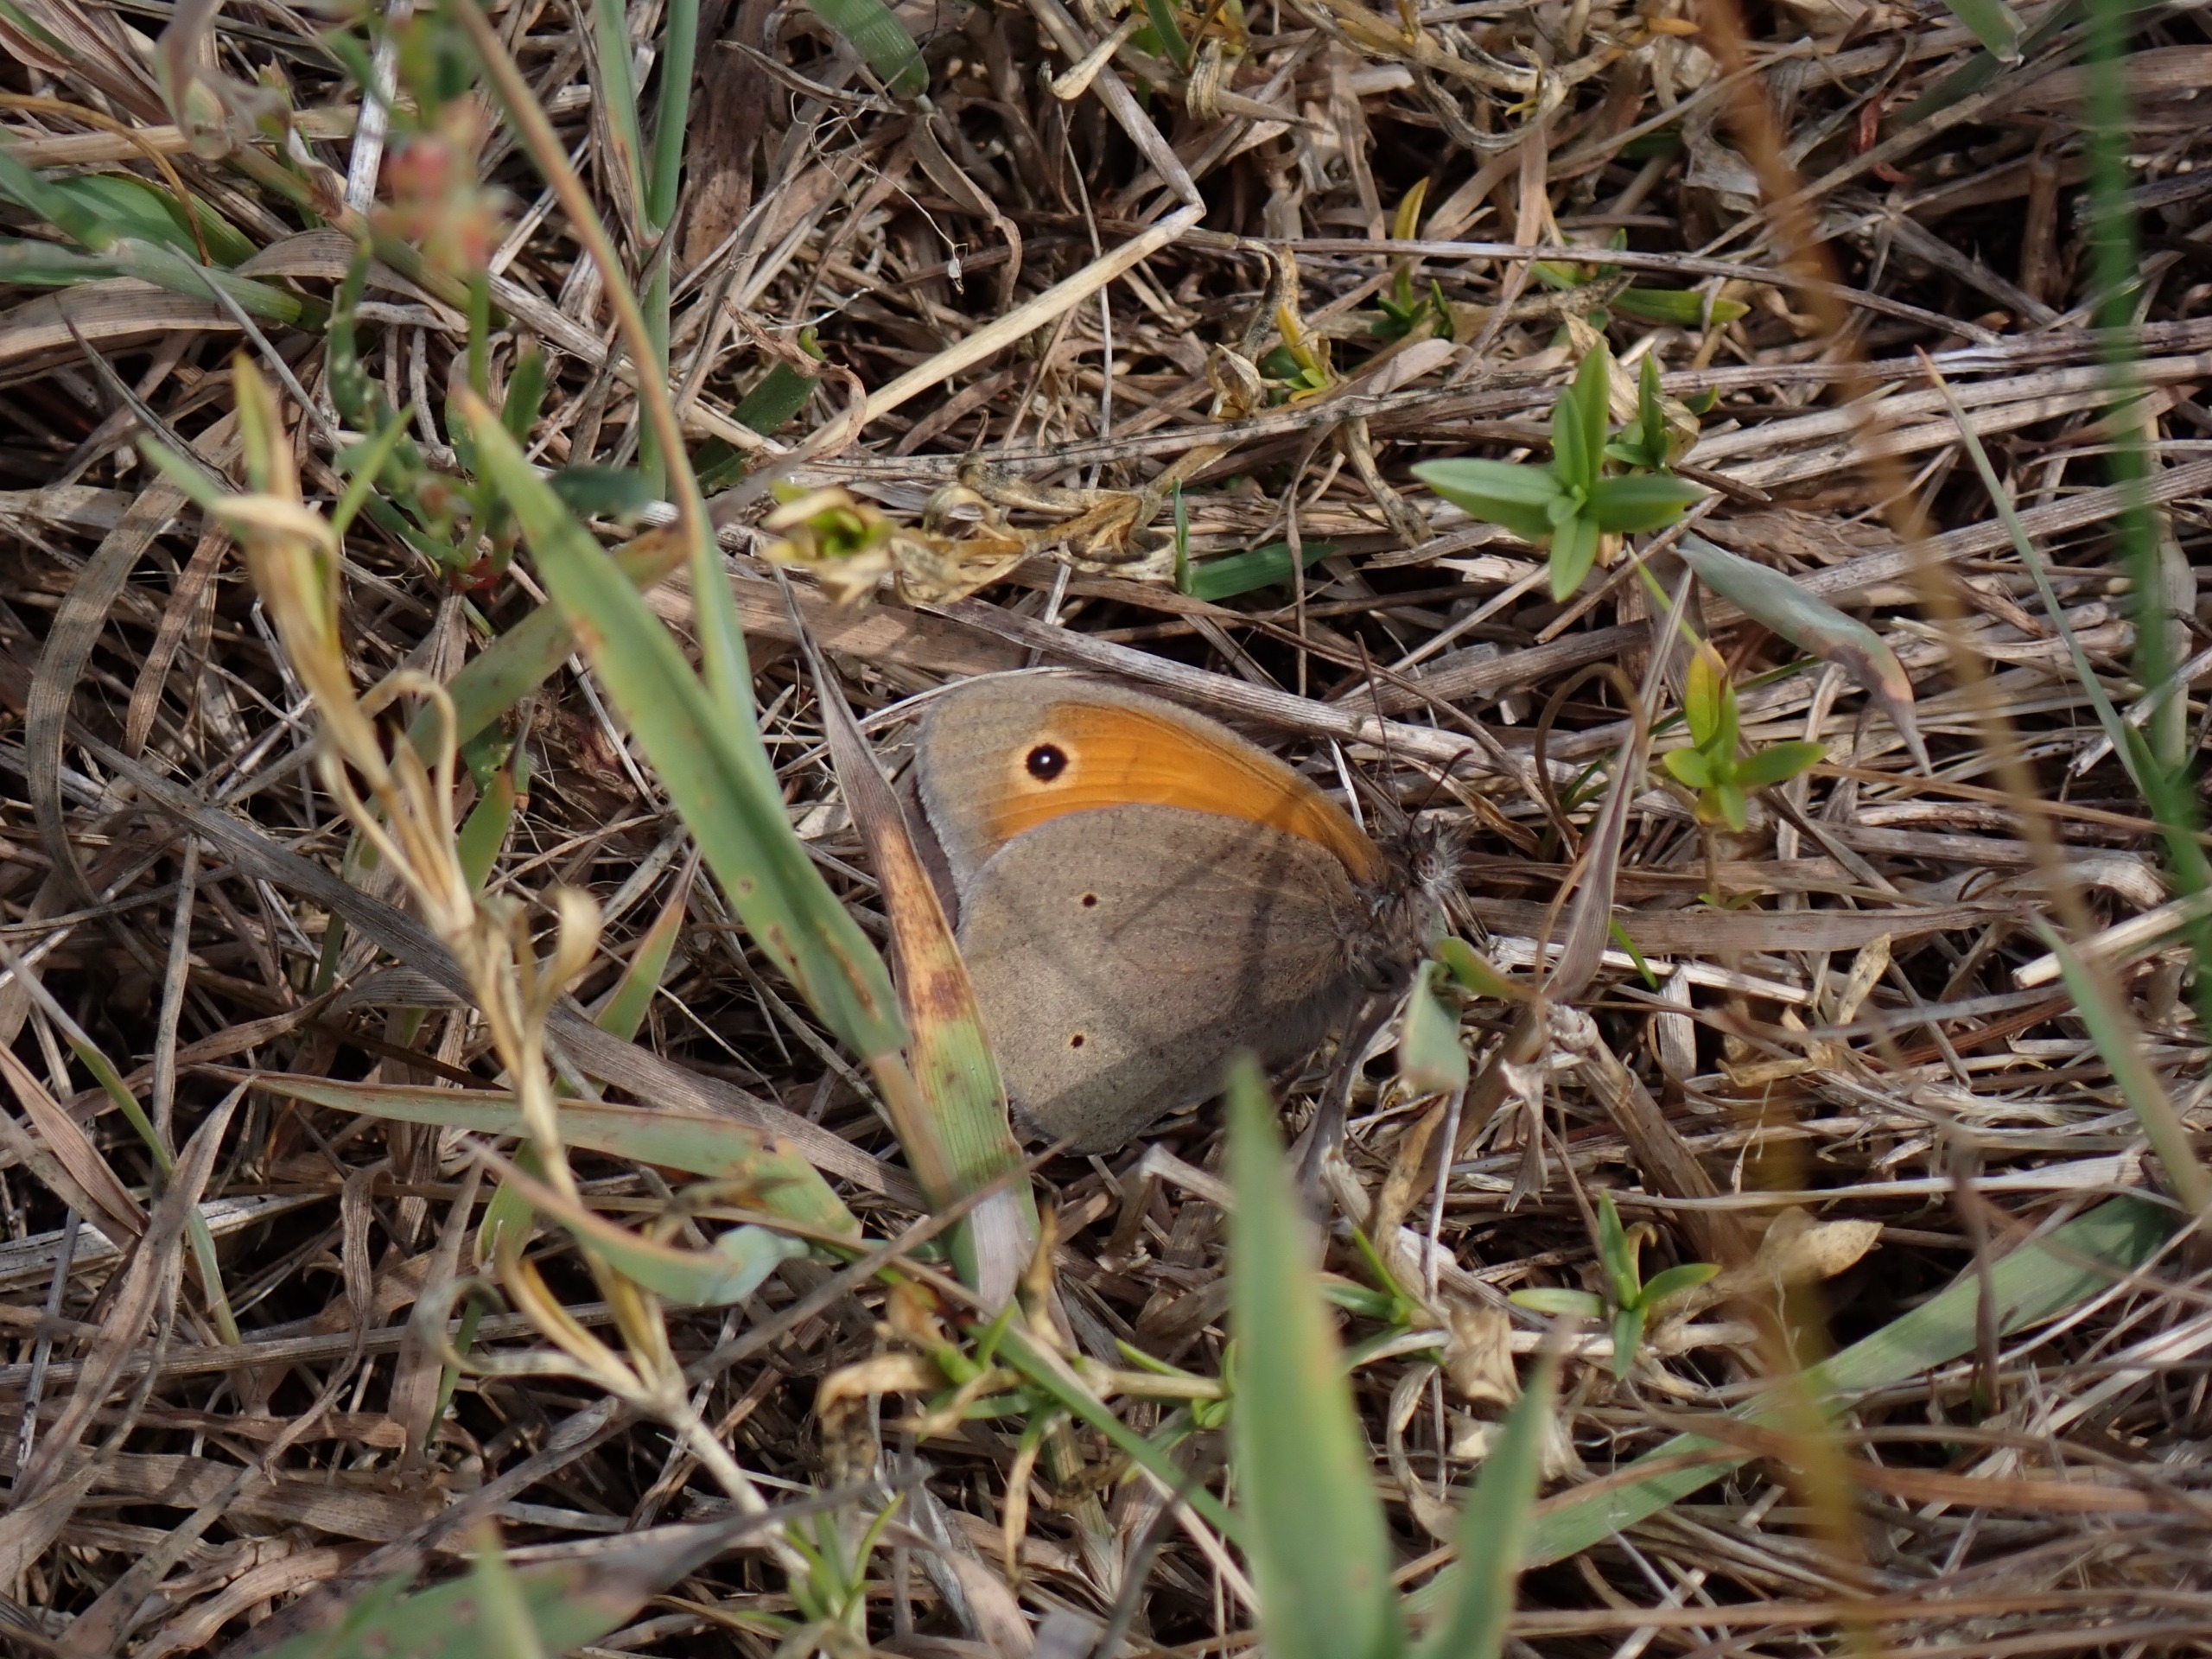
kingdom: Animalia
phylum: Arthropoda
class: Insecta
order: Lepidoptera
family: Nymphalidae
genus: Maniola
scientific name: Maniola jurtina
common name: Græsrandøje
